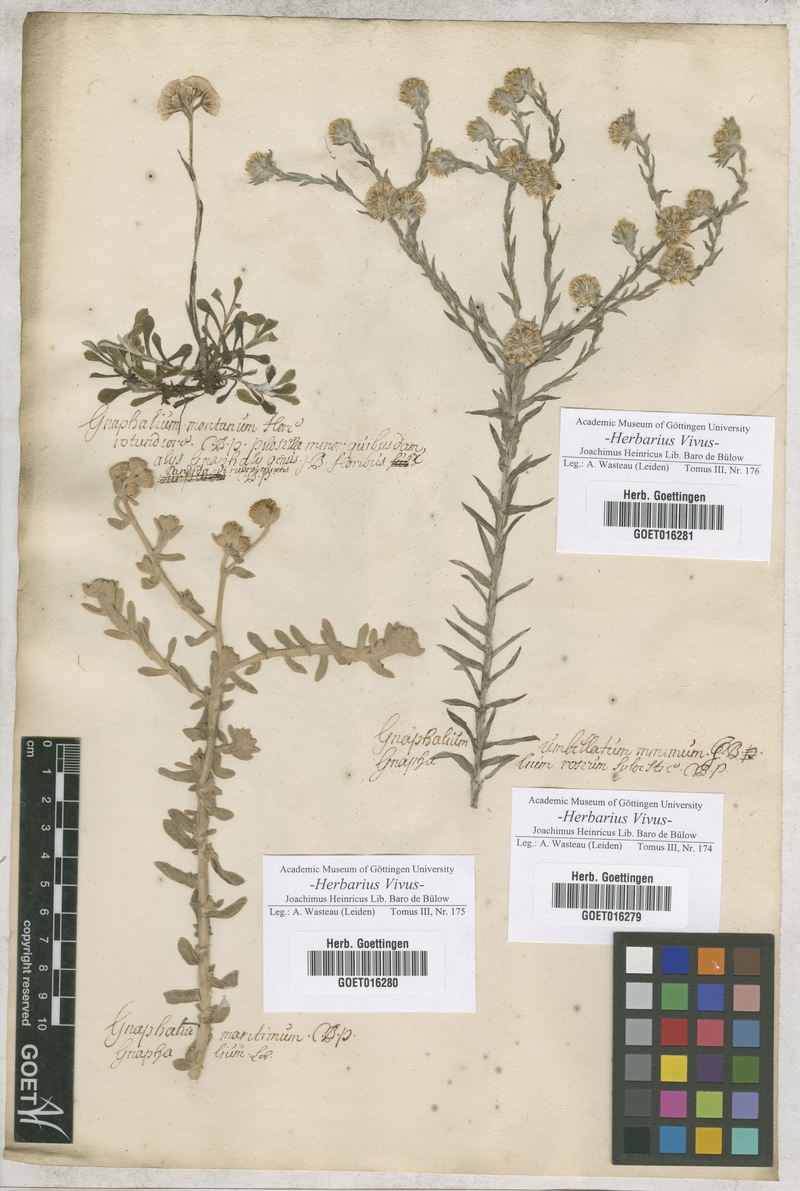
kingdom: Plantae
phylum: Tracheophyta
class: Magnoliopsida
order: Asterales
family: Asteraceae
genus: Gnaphalium
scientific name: Gnaphalium
